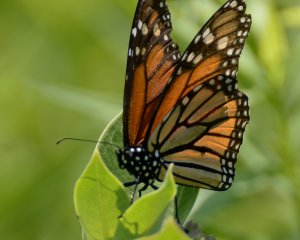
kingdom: Animalia
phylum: Arthropoda
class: Insecta
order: Lepidoptera
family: Nymphalidae
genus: Danaus
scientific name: Danaus plexippus
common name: Monarch
